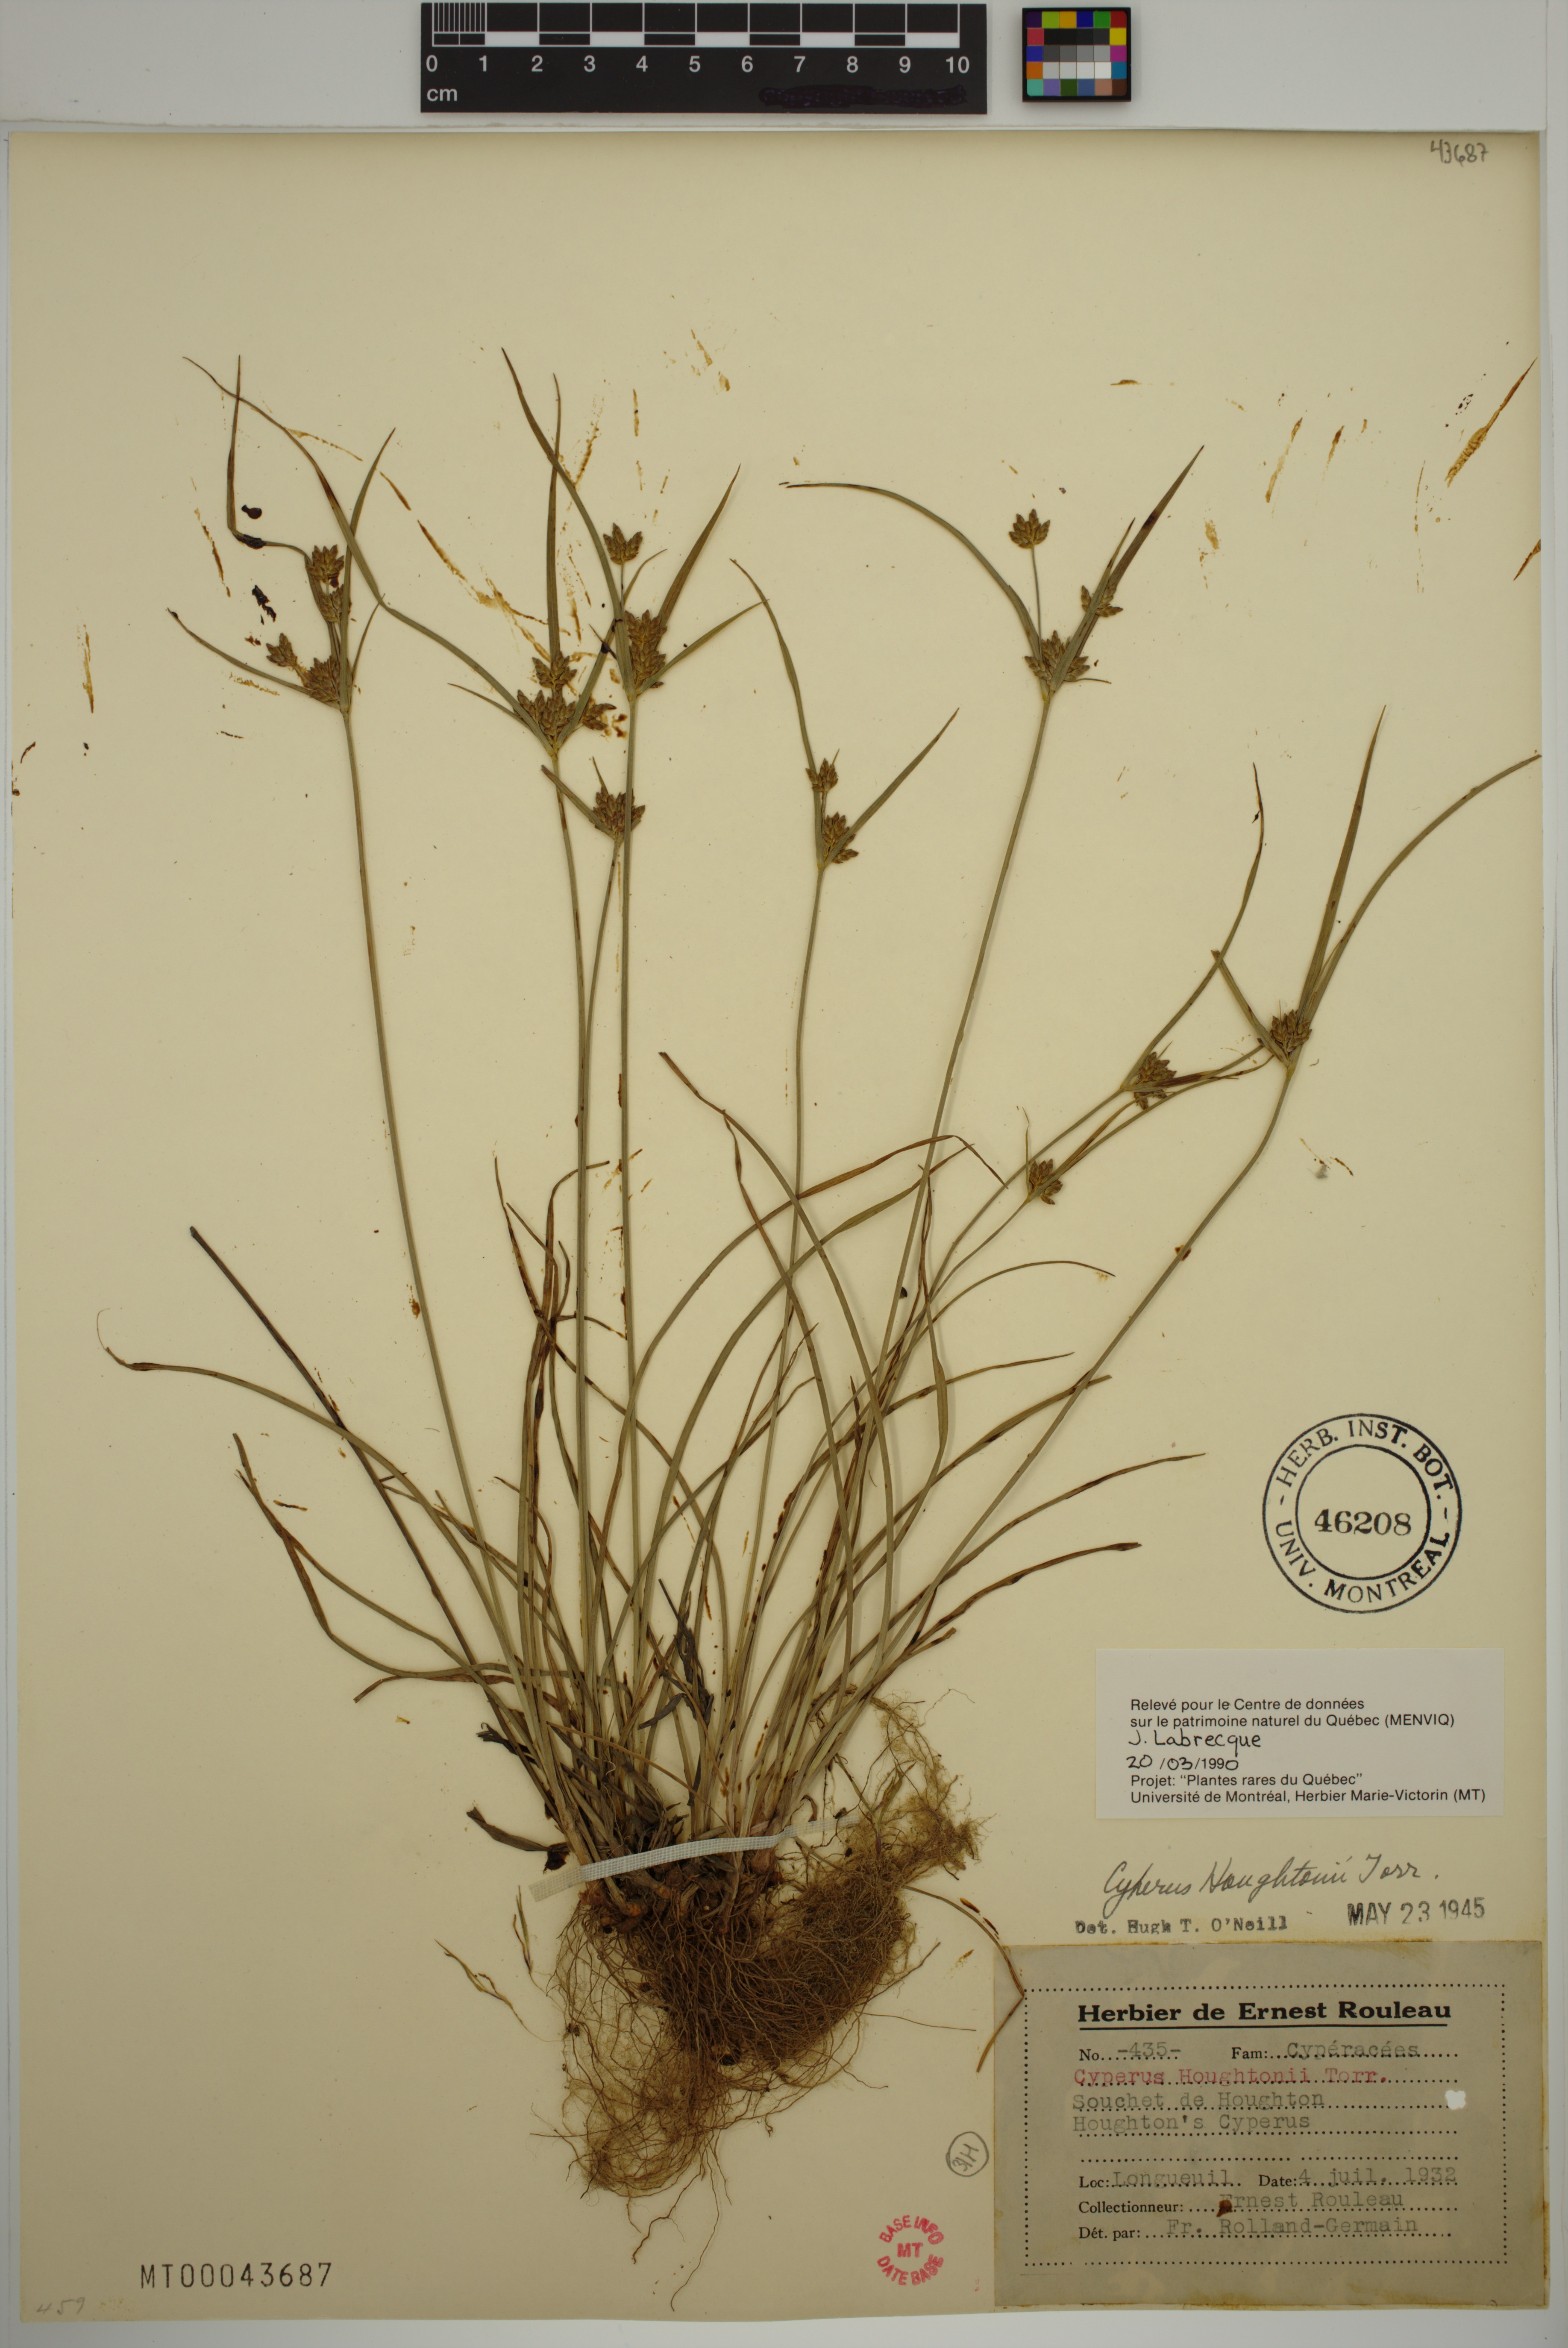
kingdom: Plantae
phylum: Tracheophyta
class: Liliopsida
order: Poales
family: Cyperaceae
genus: Cyperus
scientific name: Cyperus houghtonii
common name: Houghton's cyperus
